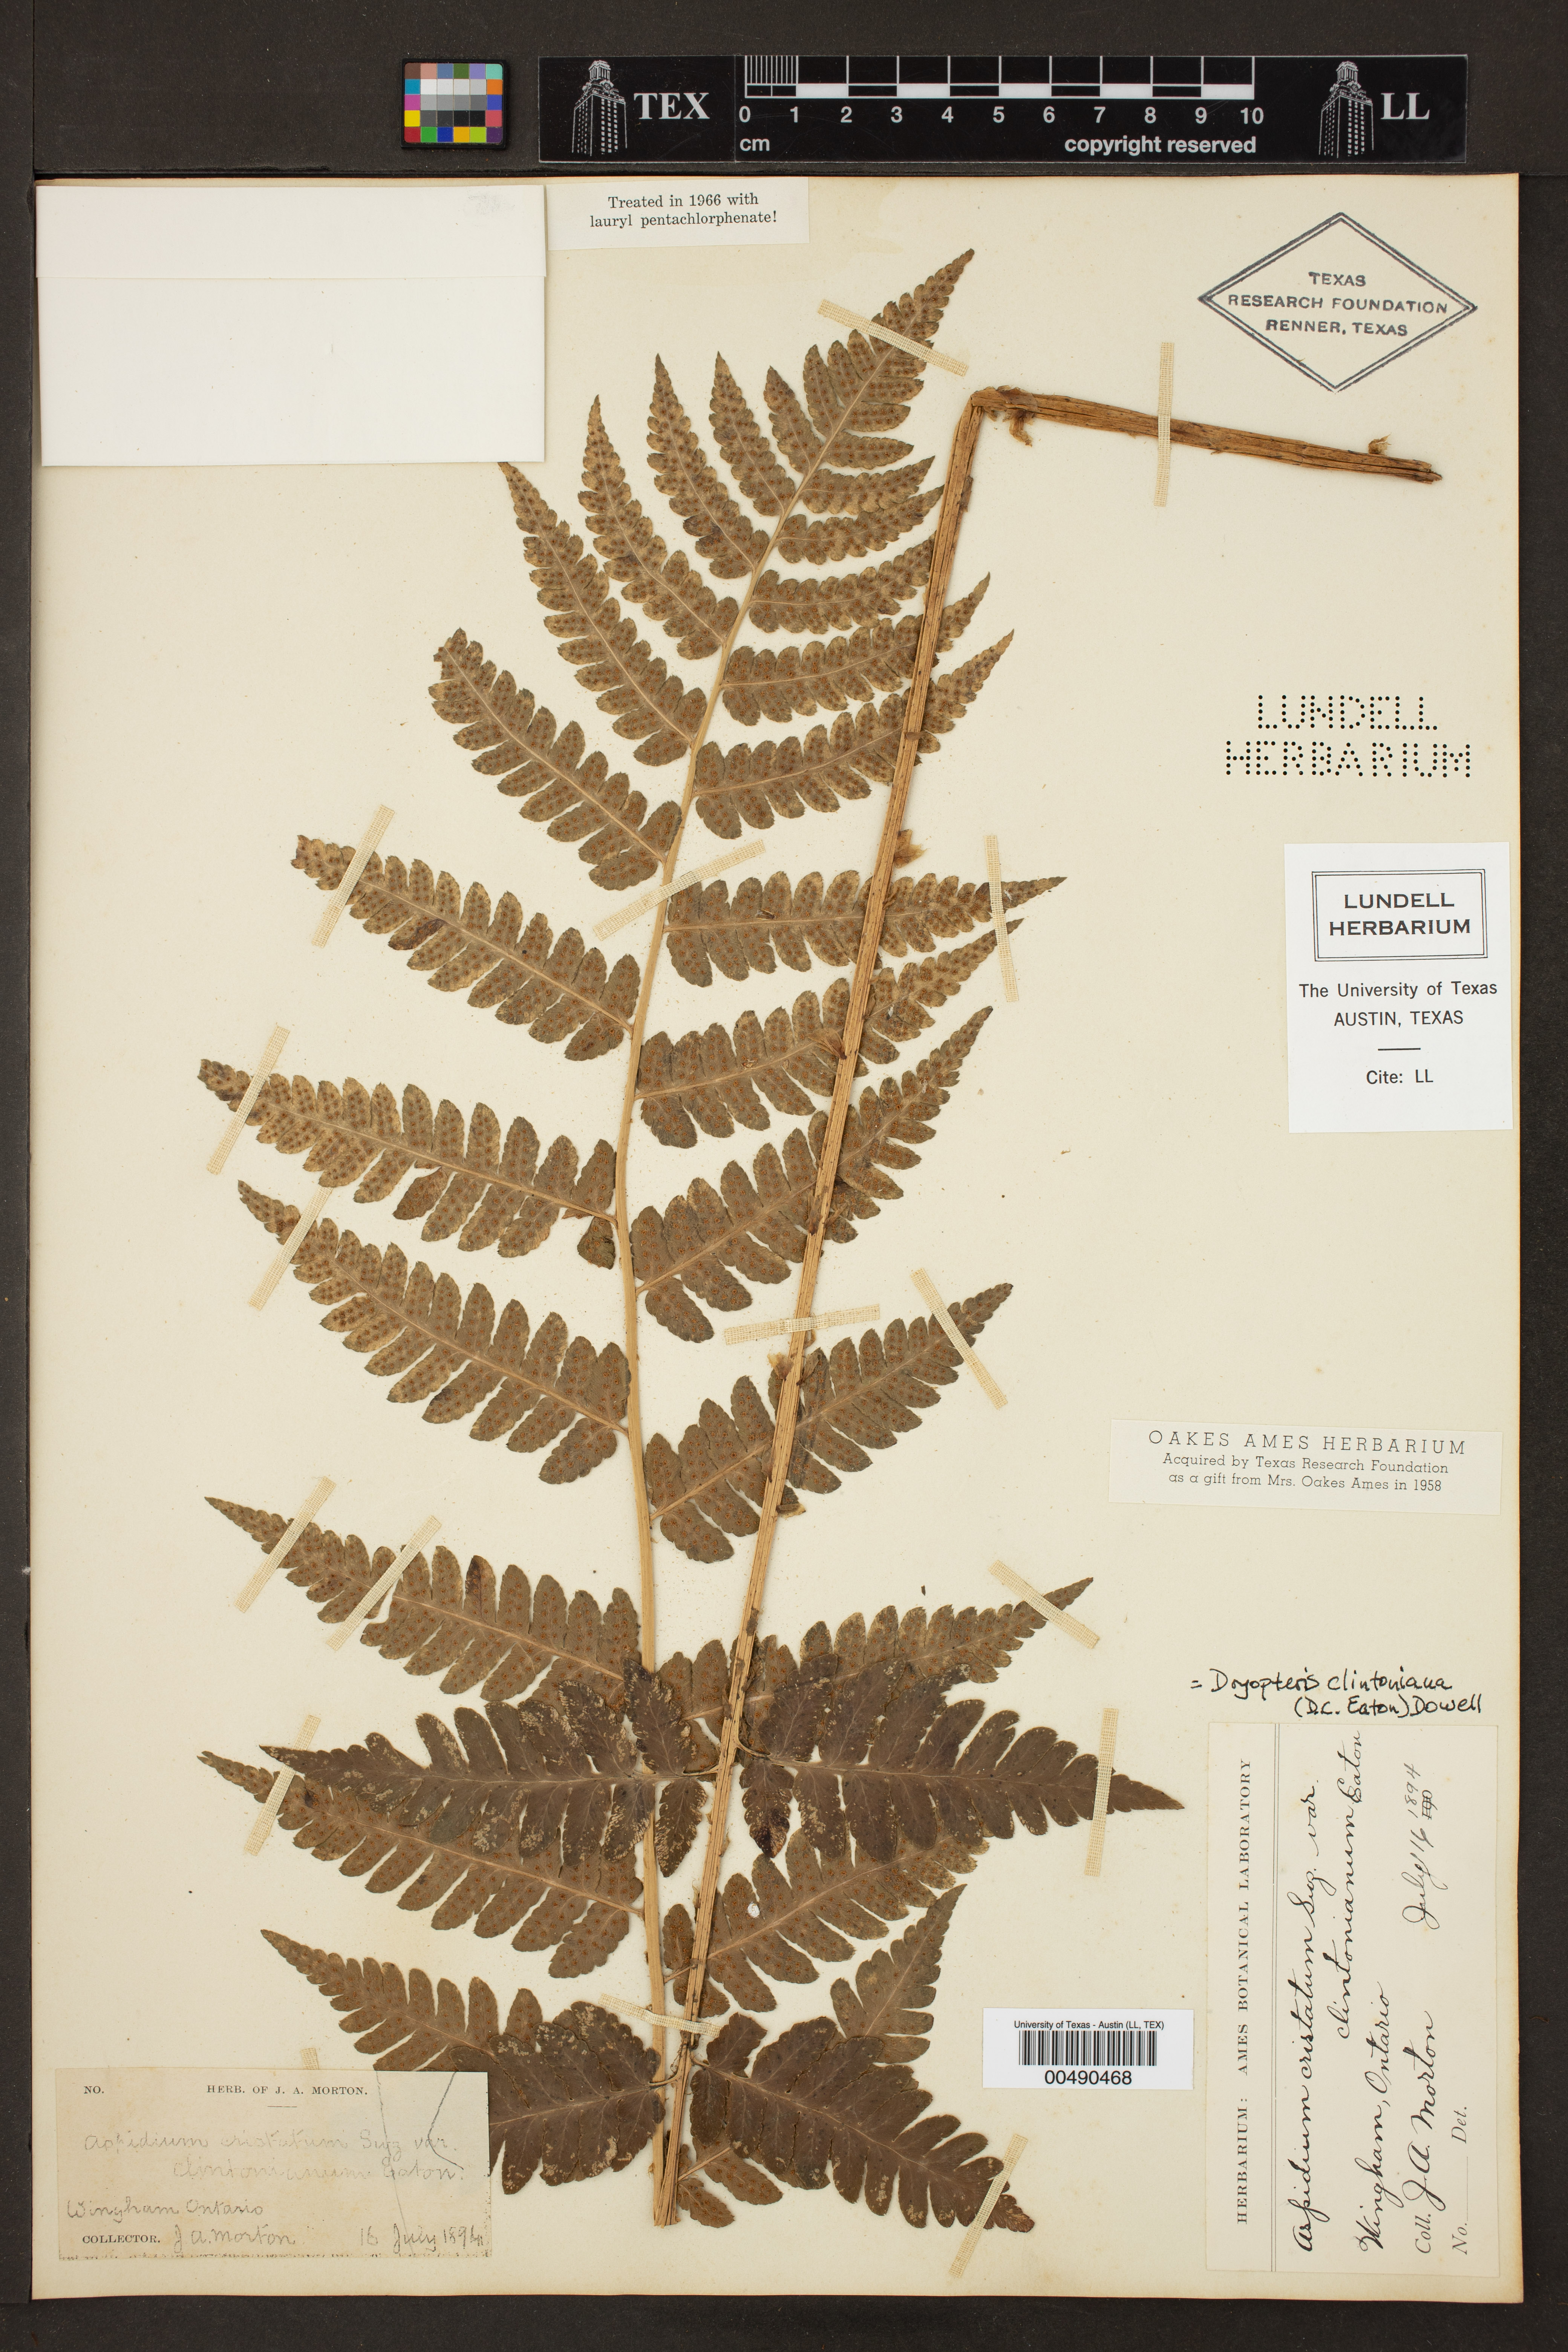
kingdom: Plantae
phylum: Tracheophyta
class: Polypodiopsida
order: Polypodiales
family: Dryopteridaceae
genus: Dryopteris
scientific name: Dryopteris clintoniana
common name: Clinton's wood fern
